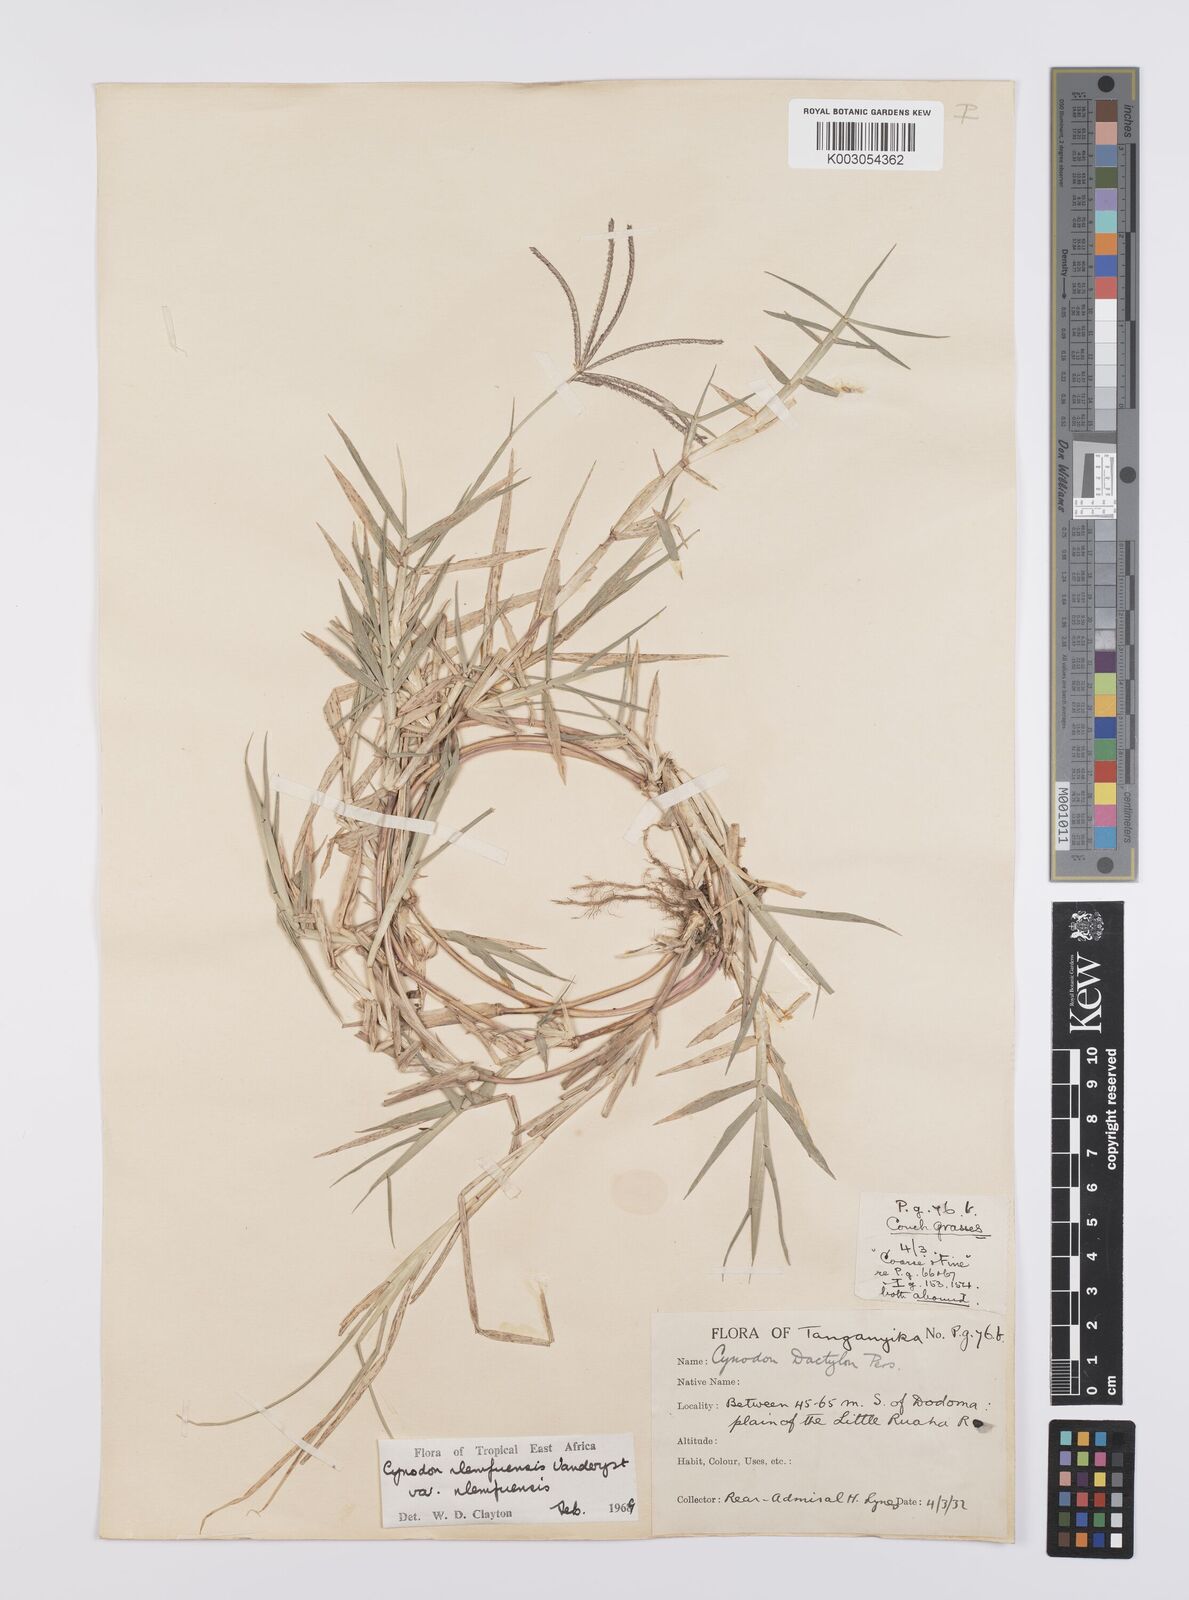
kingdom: Plantae
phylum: Tracheophyta
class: Liliopsida
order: Poales
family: Poaceae
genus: Cynodon
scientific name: Cynodon nlemfuensis
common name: African bermudagrass
